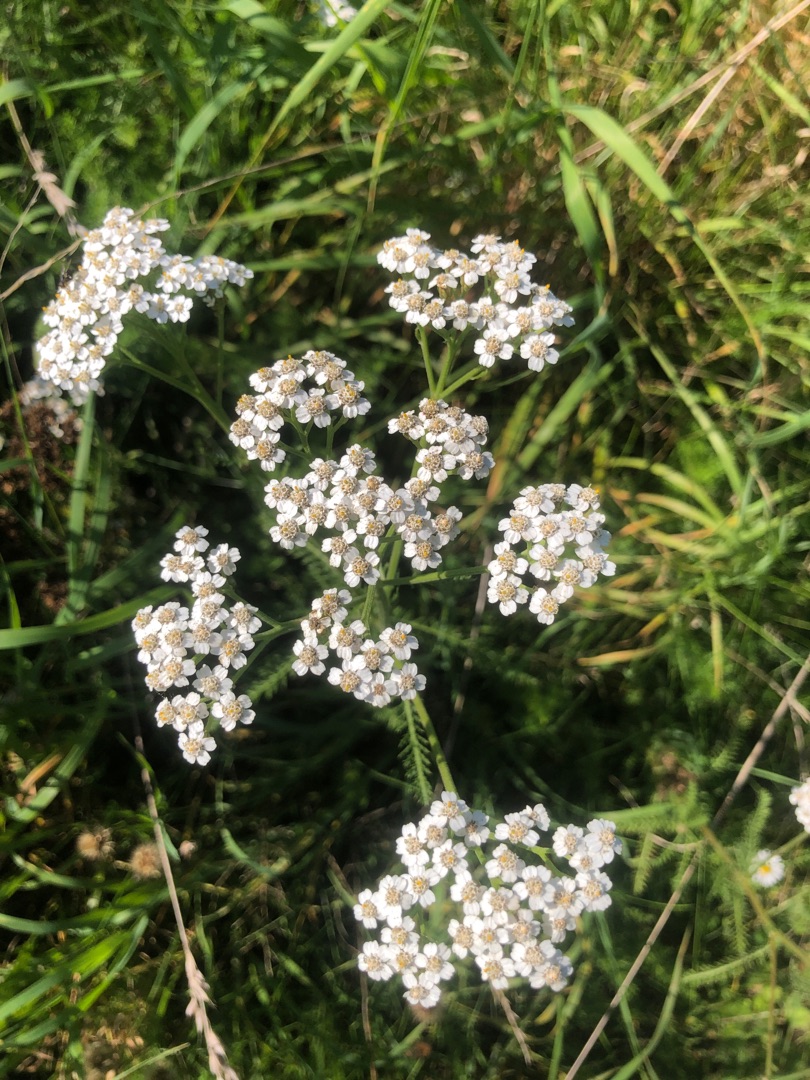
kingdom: Plantae
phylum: Tracheophyta
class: Magnoliopsida
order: Asterales
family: Asteraceae
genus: Achillea
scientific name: Achillea millefolium
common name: Almindelig røllike
